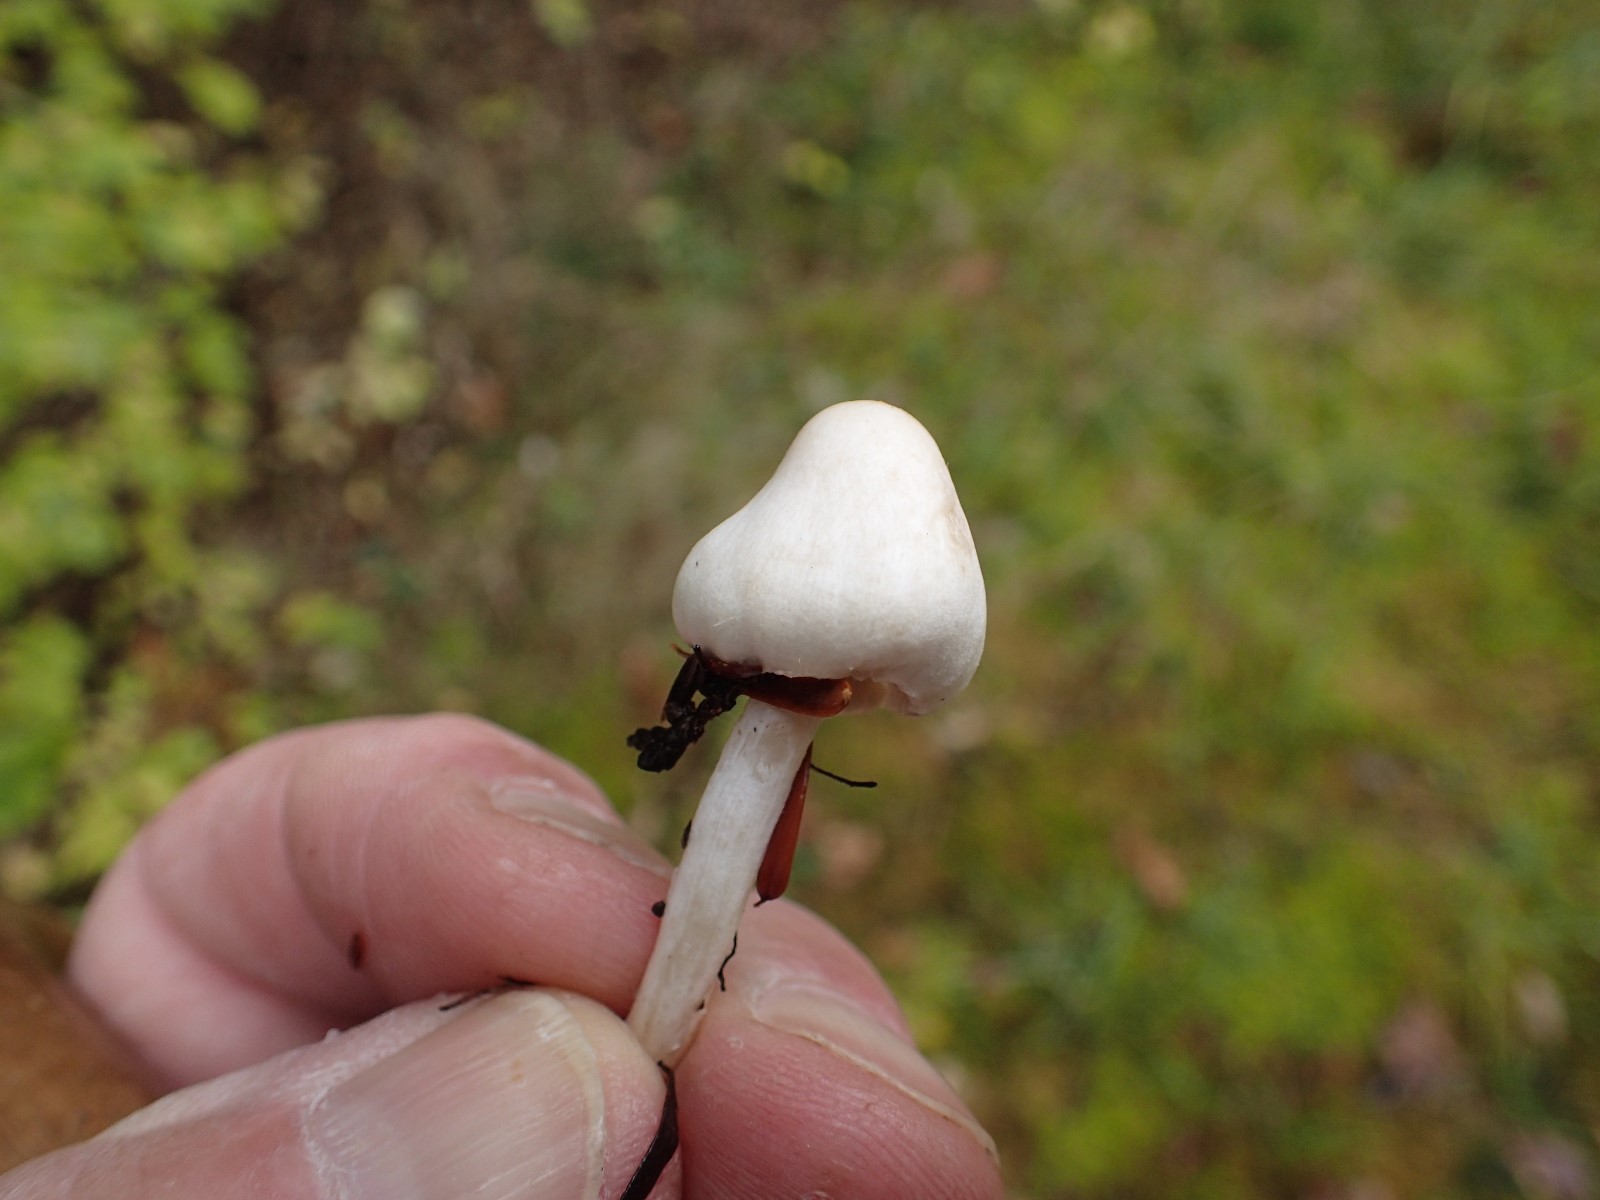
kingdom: Fungi
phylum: Basidiomycota
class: Agaricomycetes
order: Agaricales
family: Inocybaceae
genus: Inocybe
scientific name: Inocybe
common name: almindelig trævlhat
